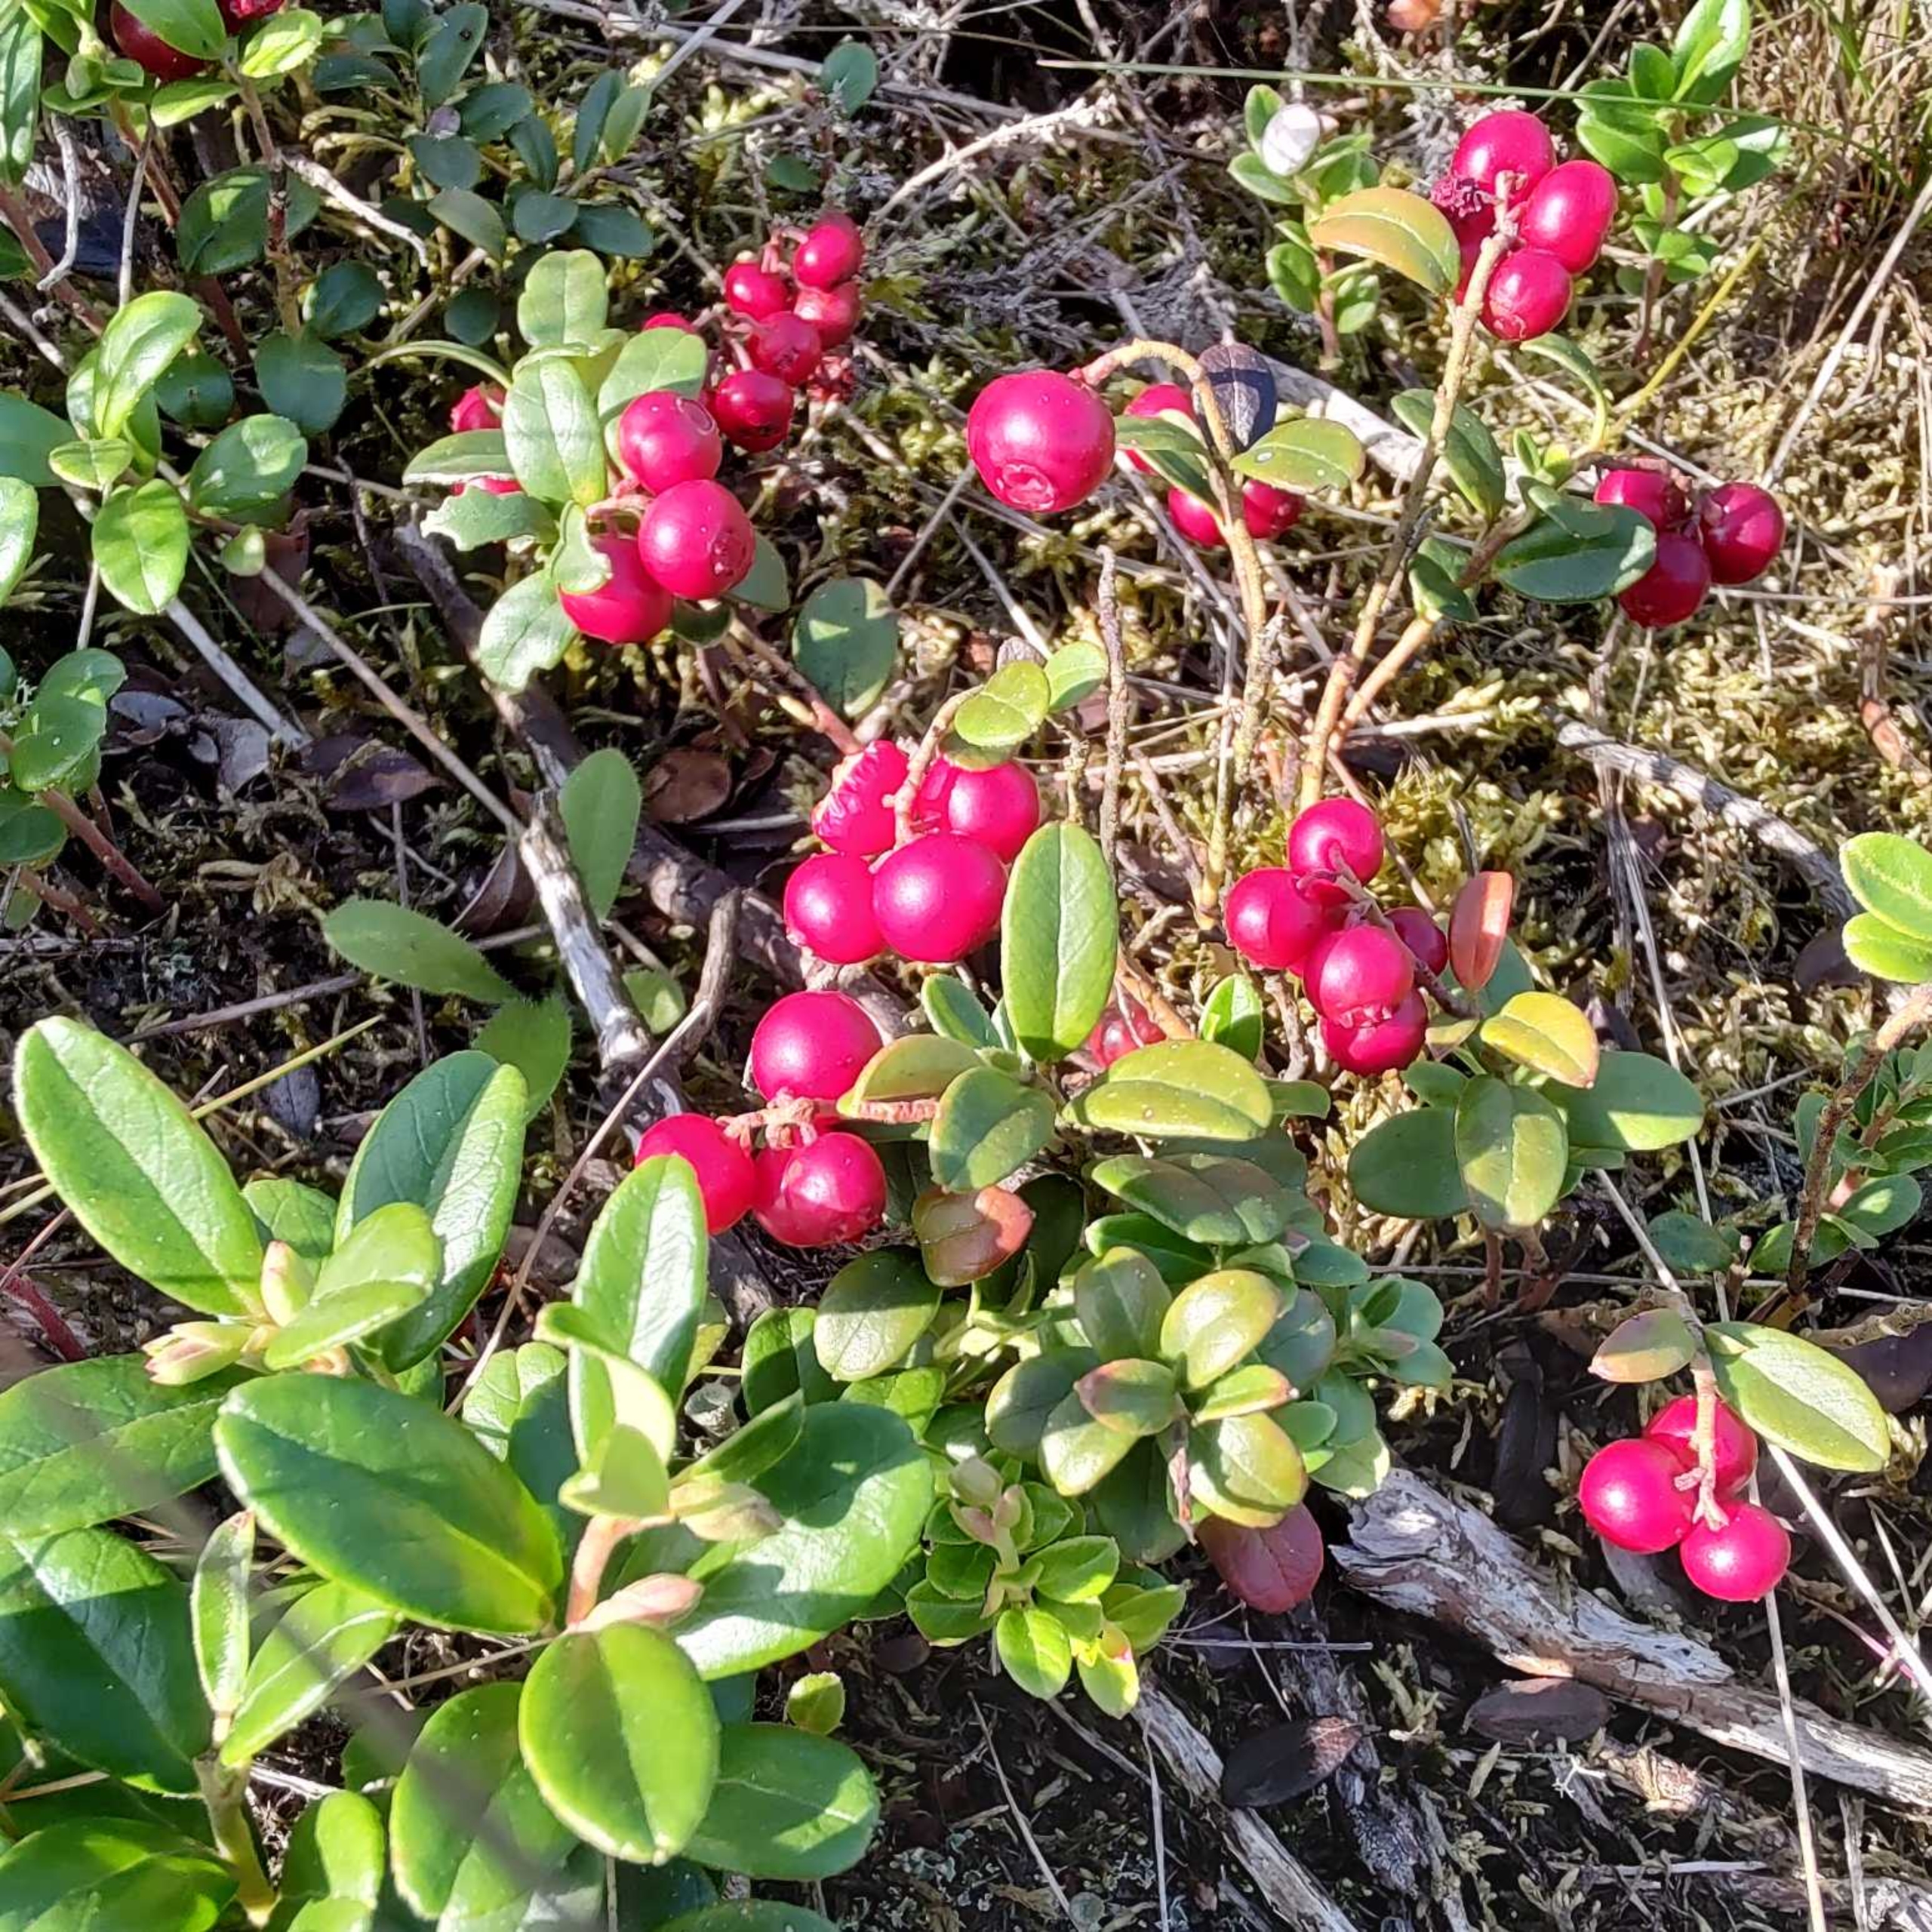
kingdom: Plantae
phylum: Tracheophyta
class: Magnoliopsida
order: Ericales
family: Ericaceae
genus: Vaccinium
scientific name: Vaccinium vitis-idaea
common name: Tyttebær
